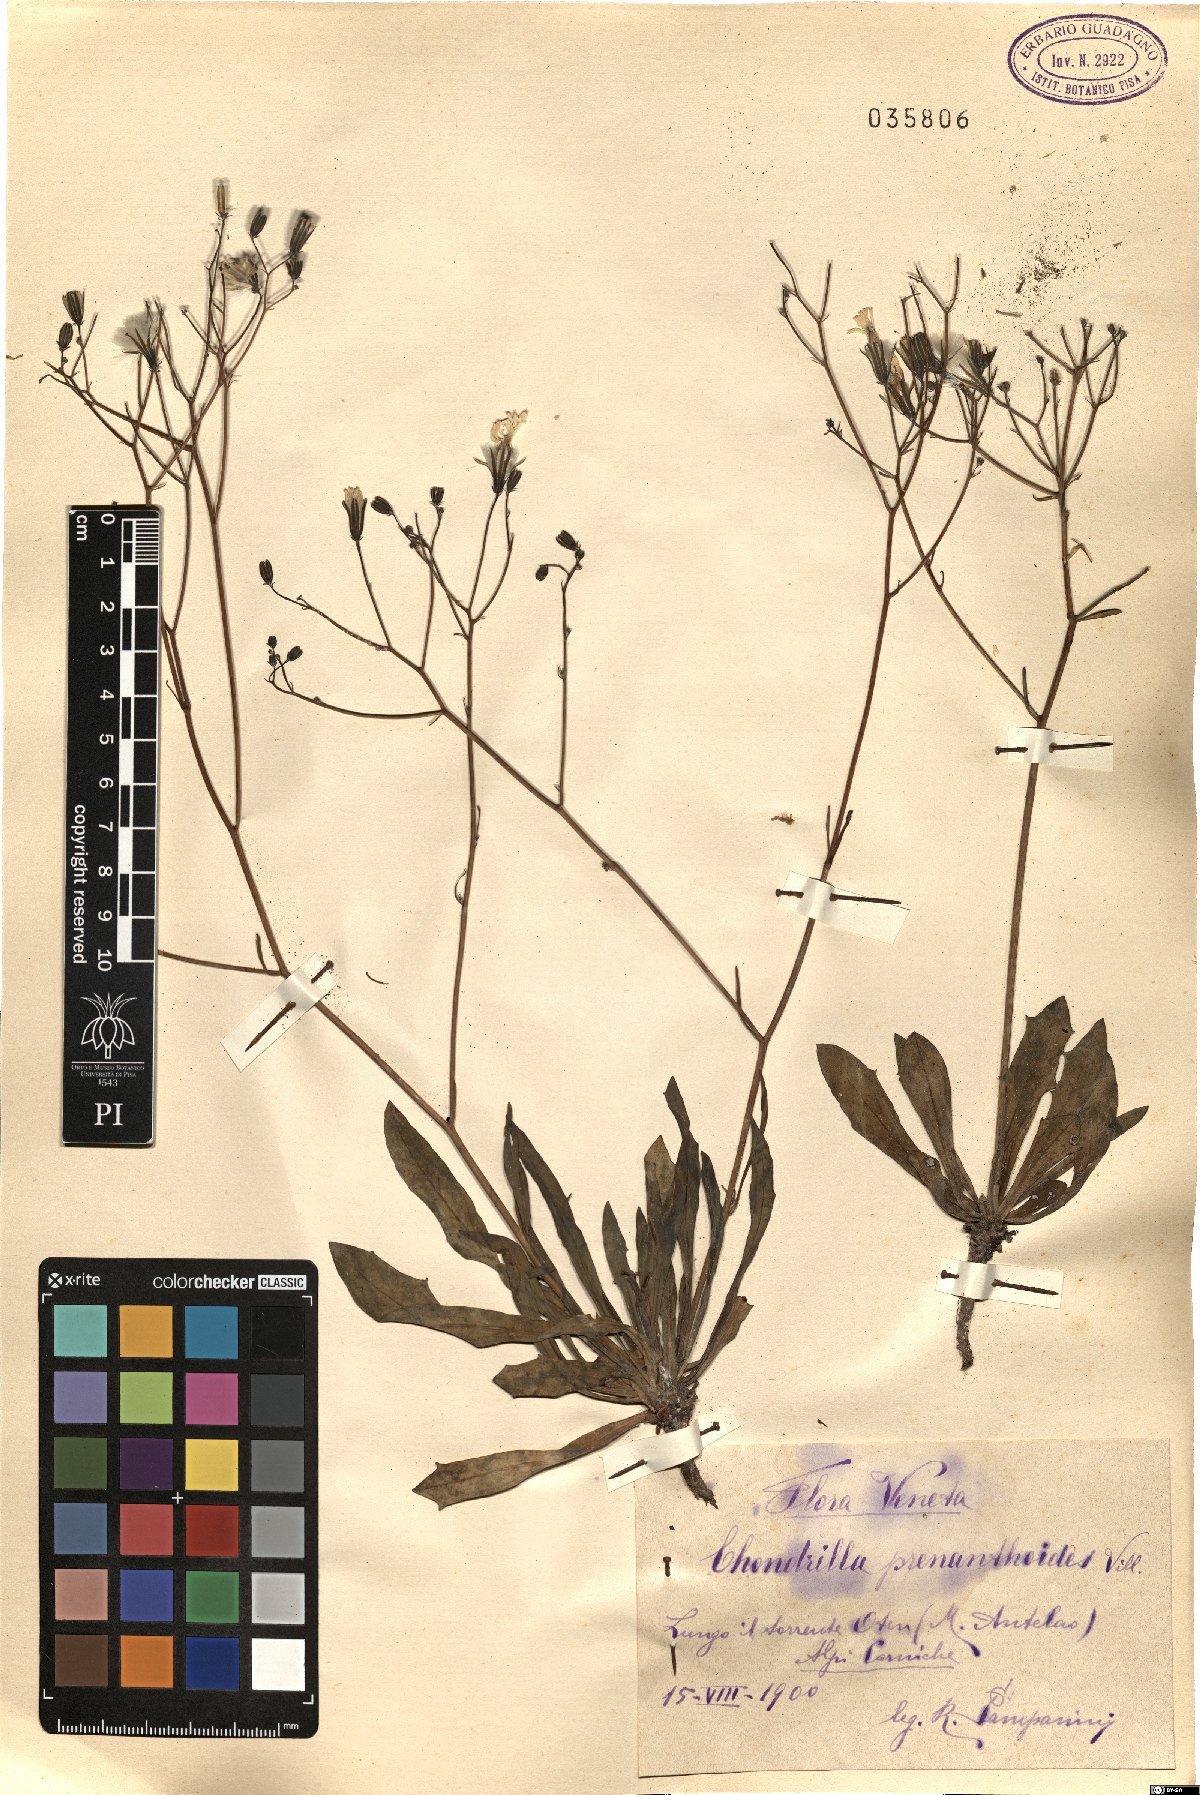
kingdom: Plantae
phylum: Tracheophyta
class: Magnoliopsida
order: Asterales
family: Asteraceae
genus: Chondrilla
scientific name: Chondrilla chondrilloides
